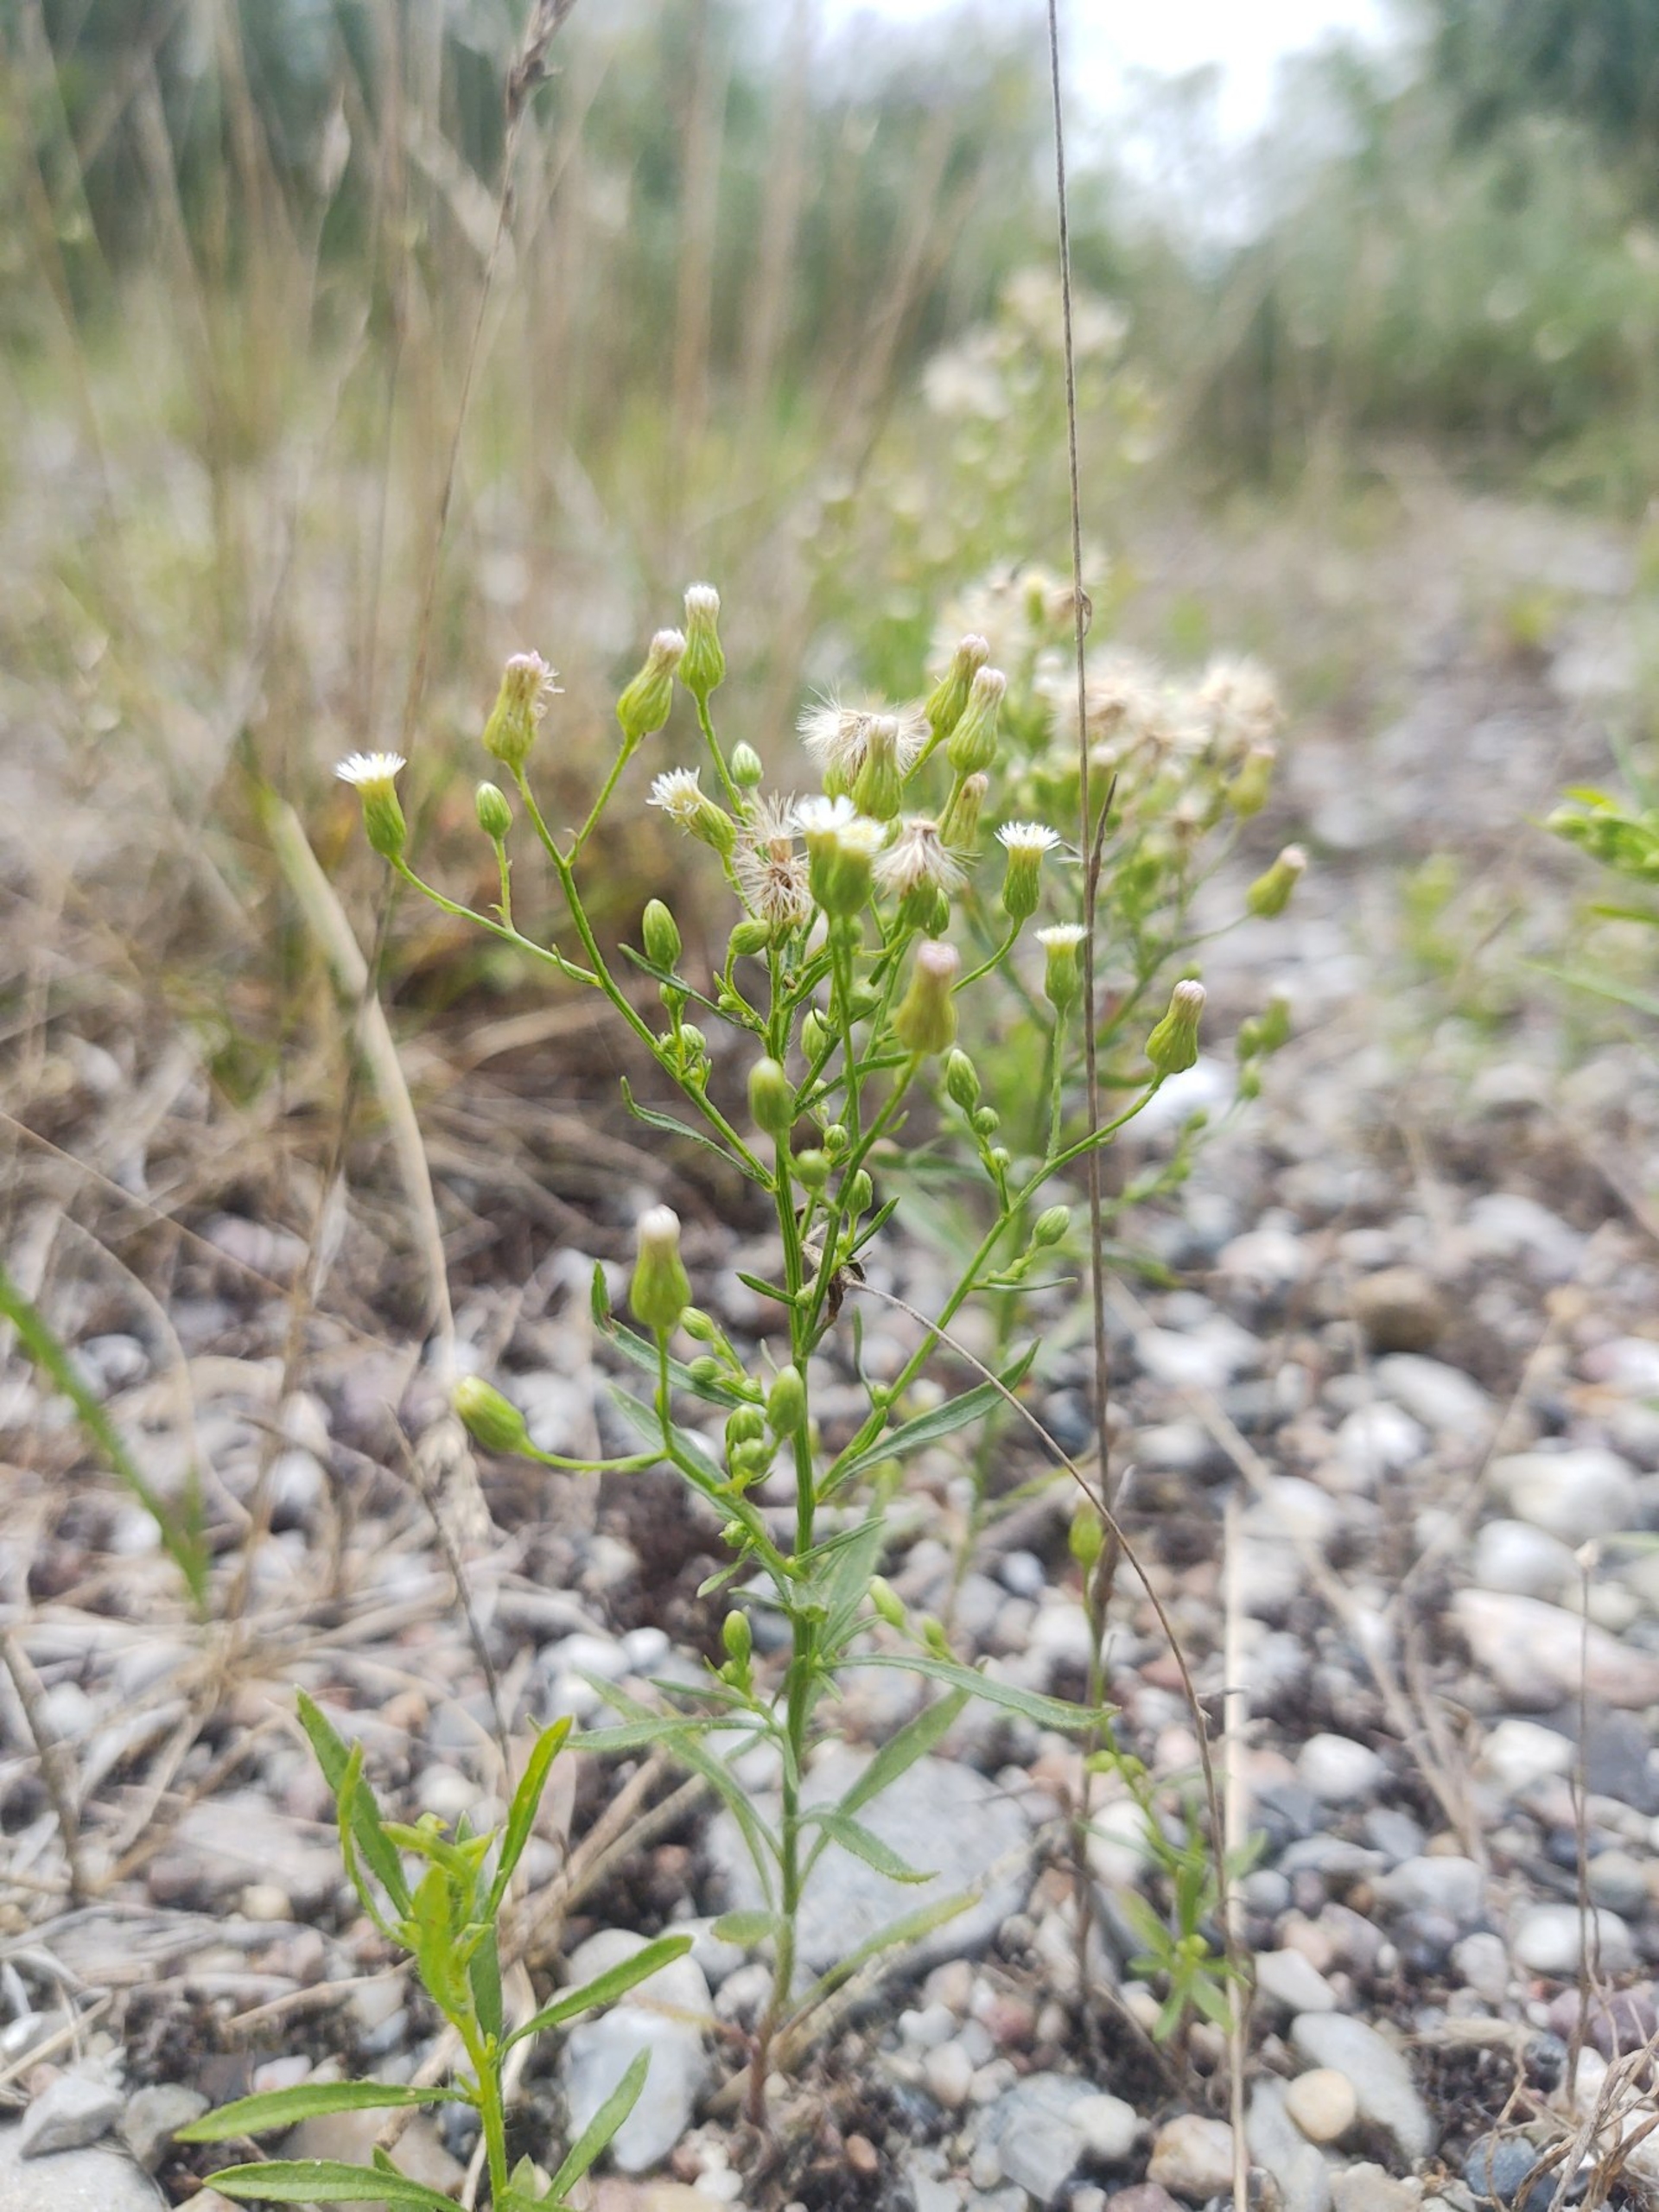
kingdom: Plantae
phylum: Tracheophyta
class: Magnoliopsida
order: Asterales
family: Asteraceae
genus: Erigeron
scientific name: Erigeron canadensis
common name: Kanadisk bakkestjerne
